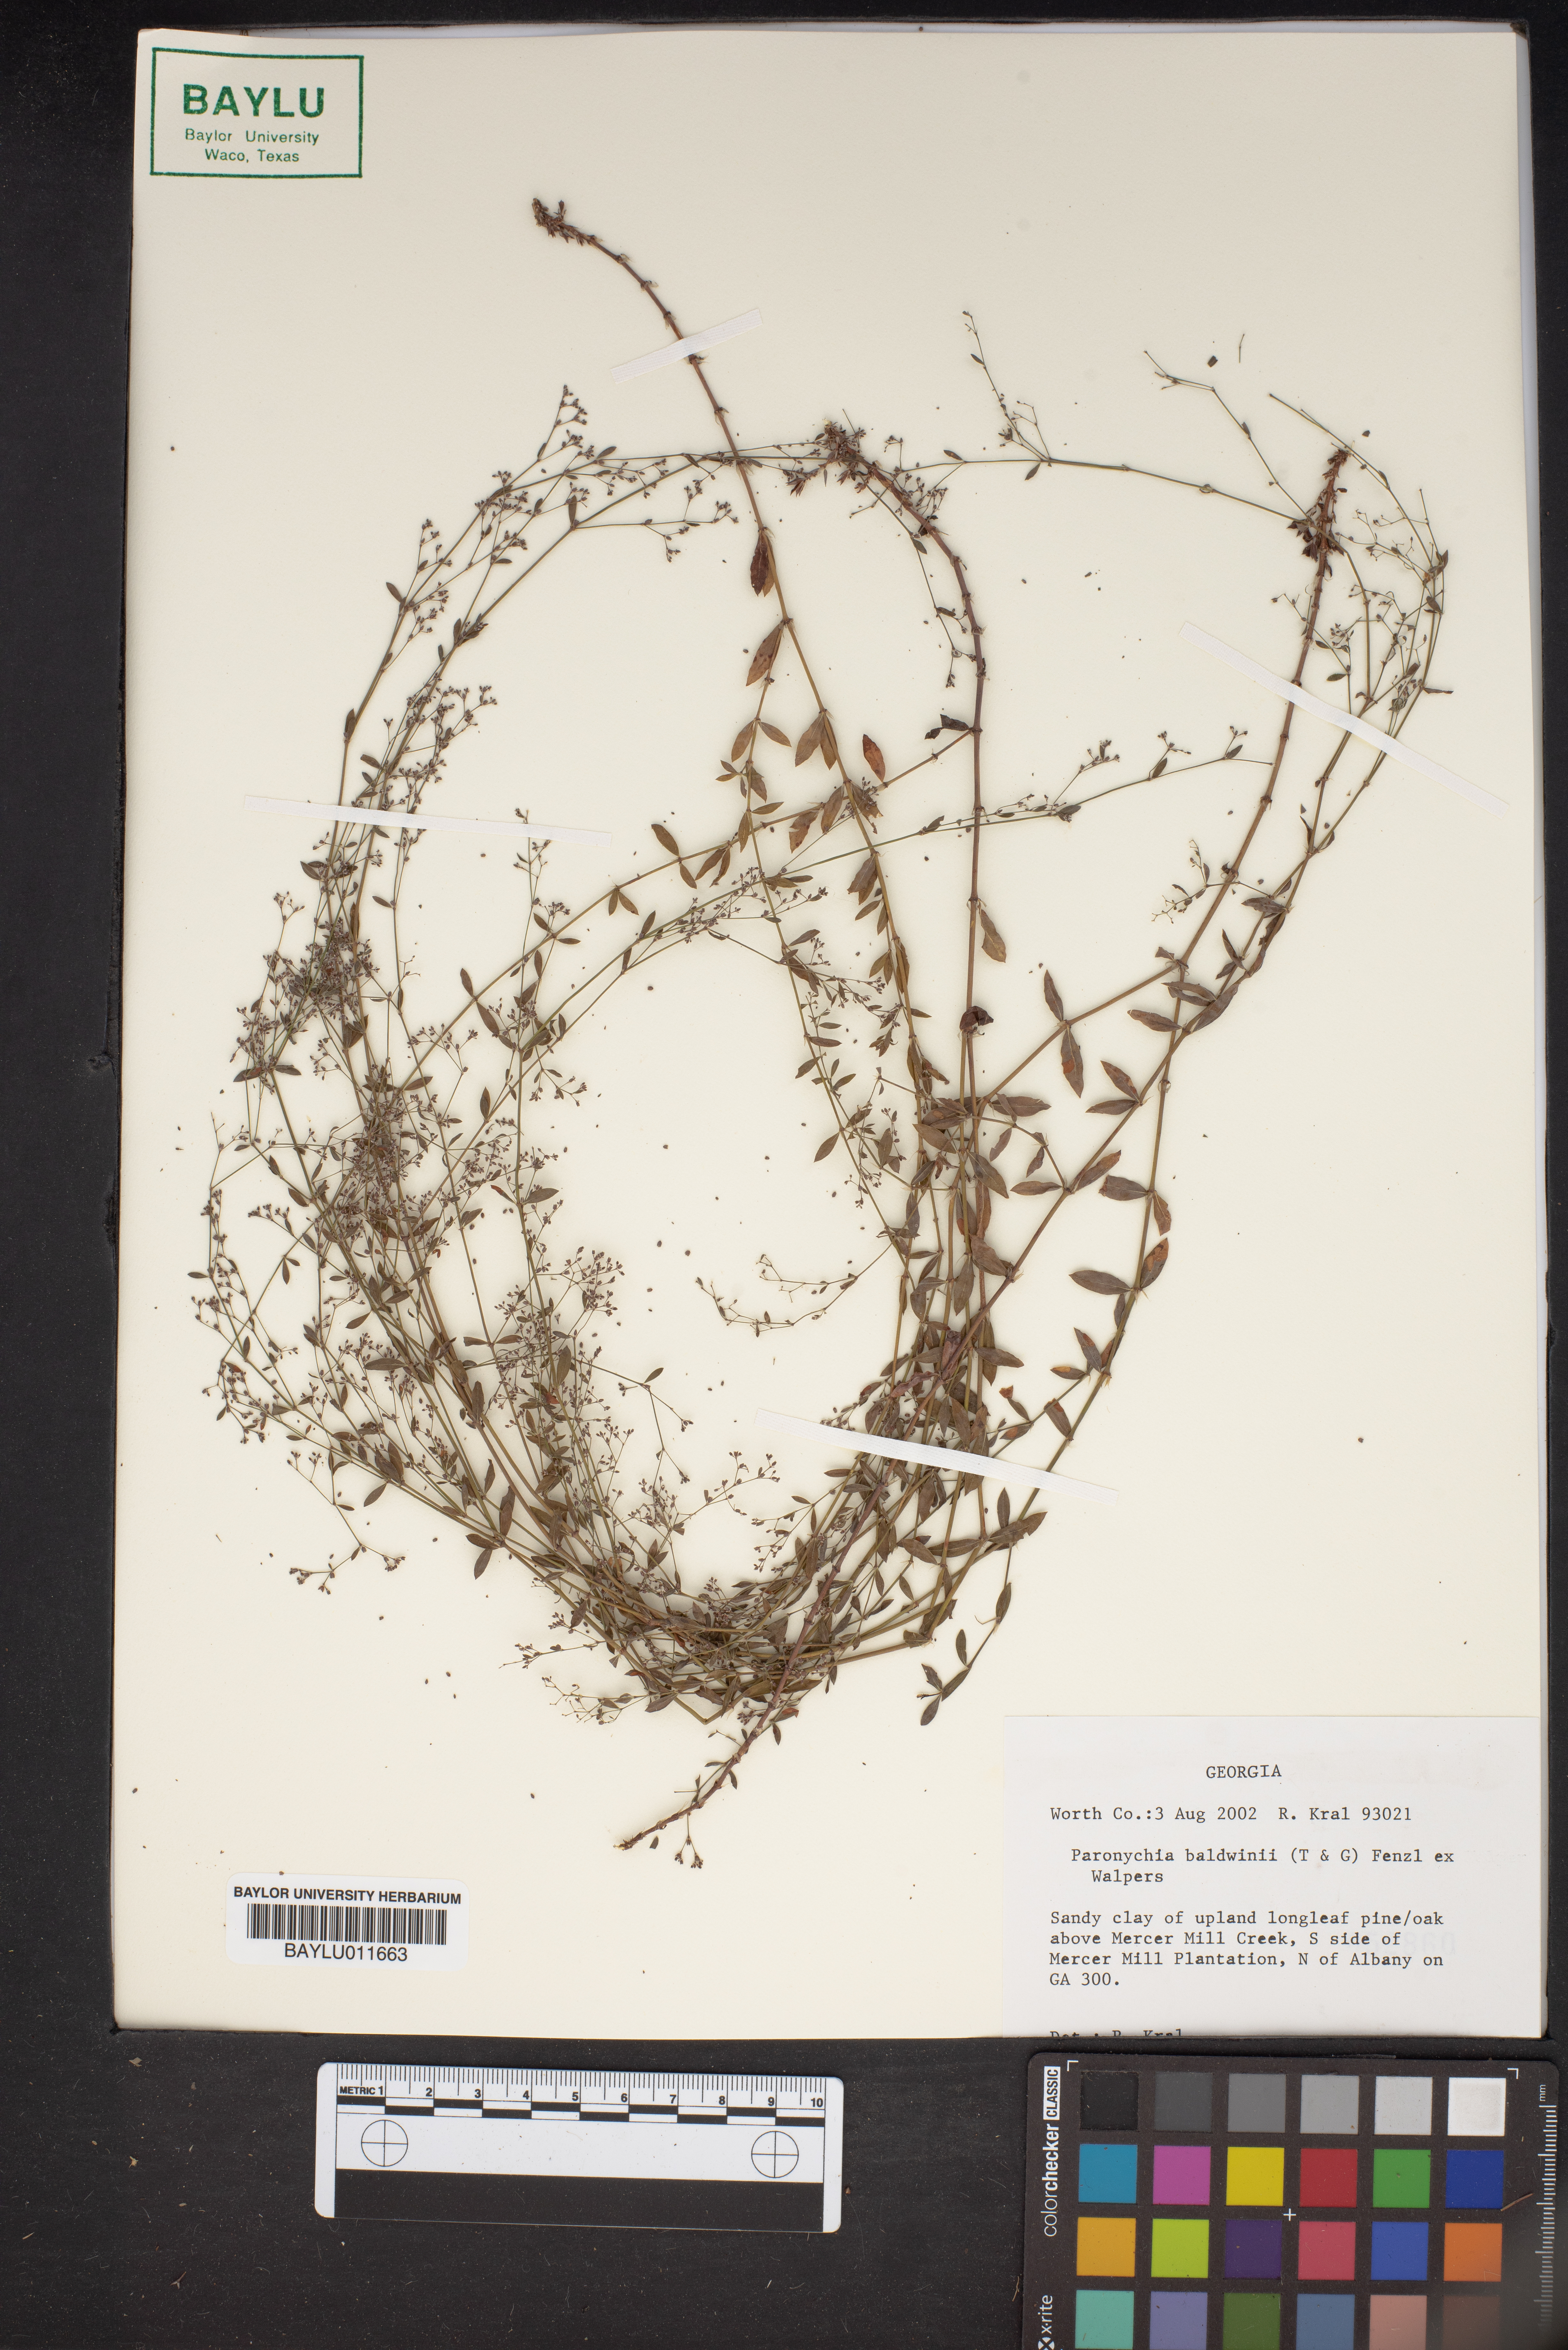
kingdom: Plantae
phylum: Tracheophyta
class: Magnoliopsida
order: Caryophyllales
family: Caryophyllaceae
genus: Paronychia
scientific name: Paronychia baldwinii
